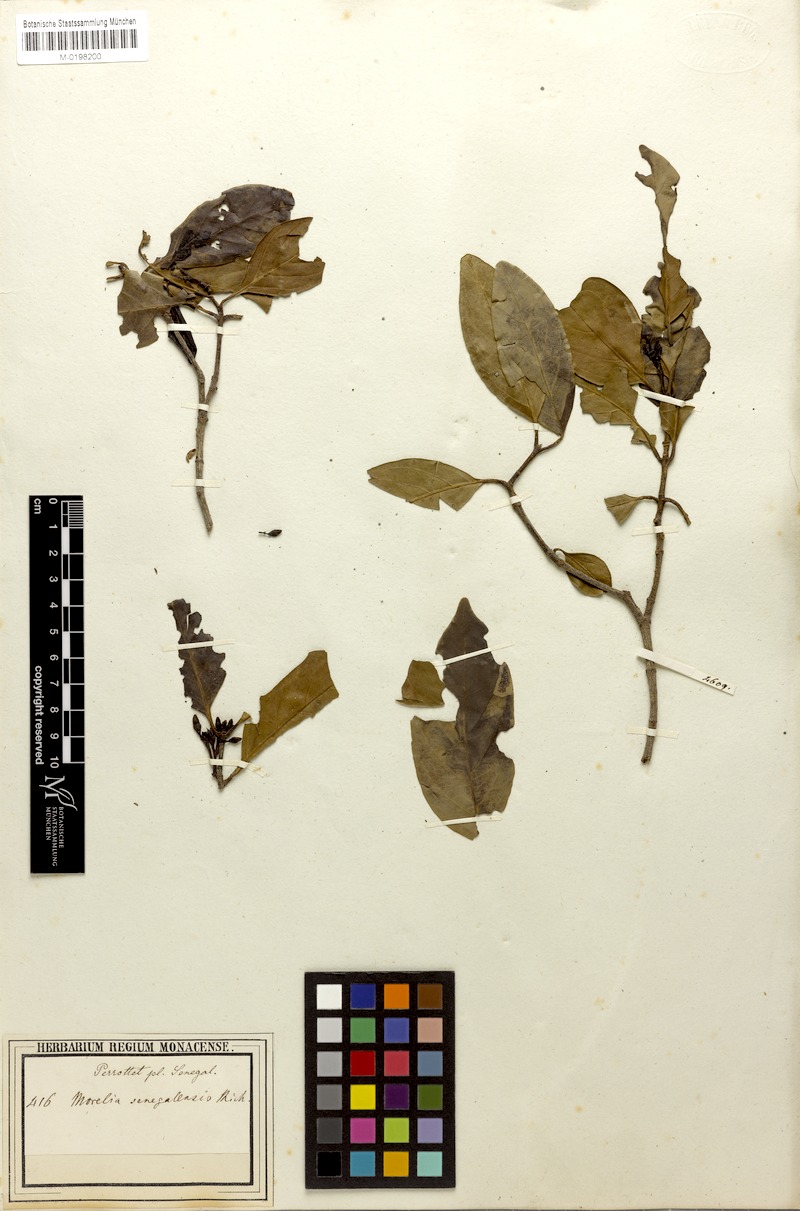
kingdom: Plantae
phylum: Tracheophyta
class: Magnoliopsida
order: Gentianales
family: Rubiaceae
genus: Morelia
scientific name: Morelia senegalensis
